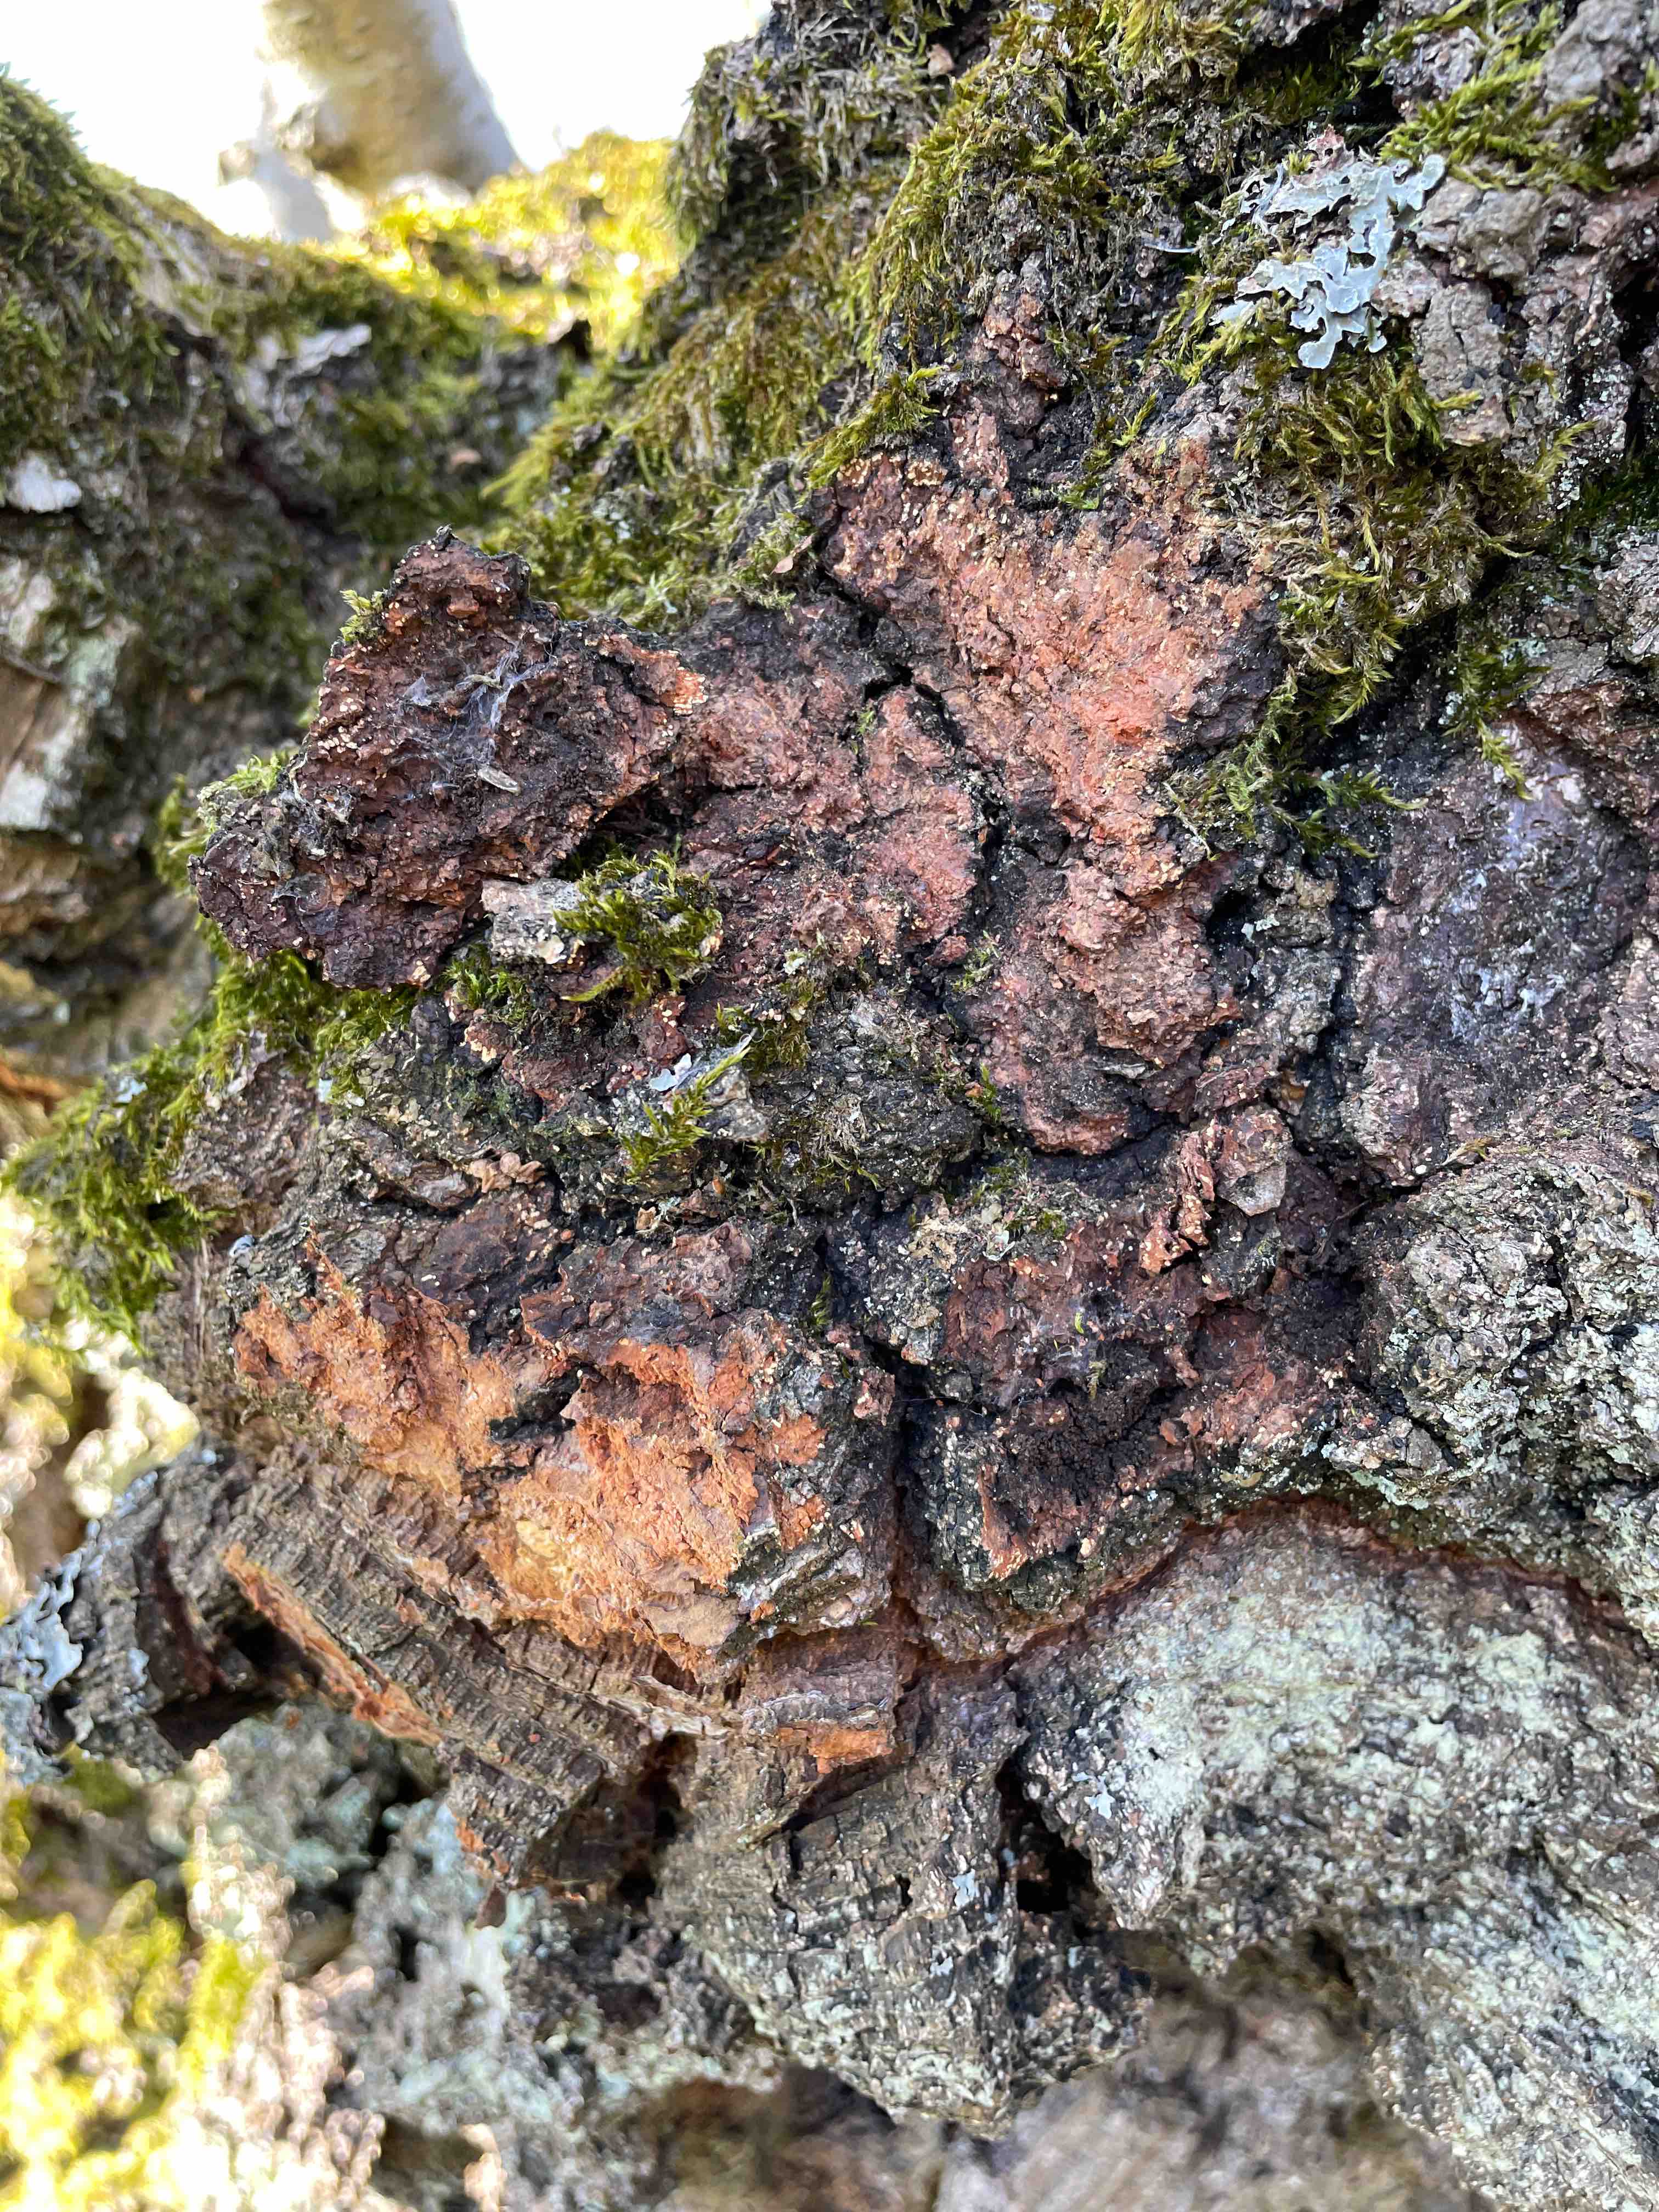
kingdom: Fungi
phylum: Basidiomycota
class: Agaricomycetes
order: Hymenochaetales
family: Hymenochaetaceae
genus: Inonotus
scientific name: Inonotus obliquus
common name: birke-spejlporesvamp
